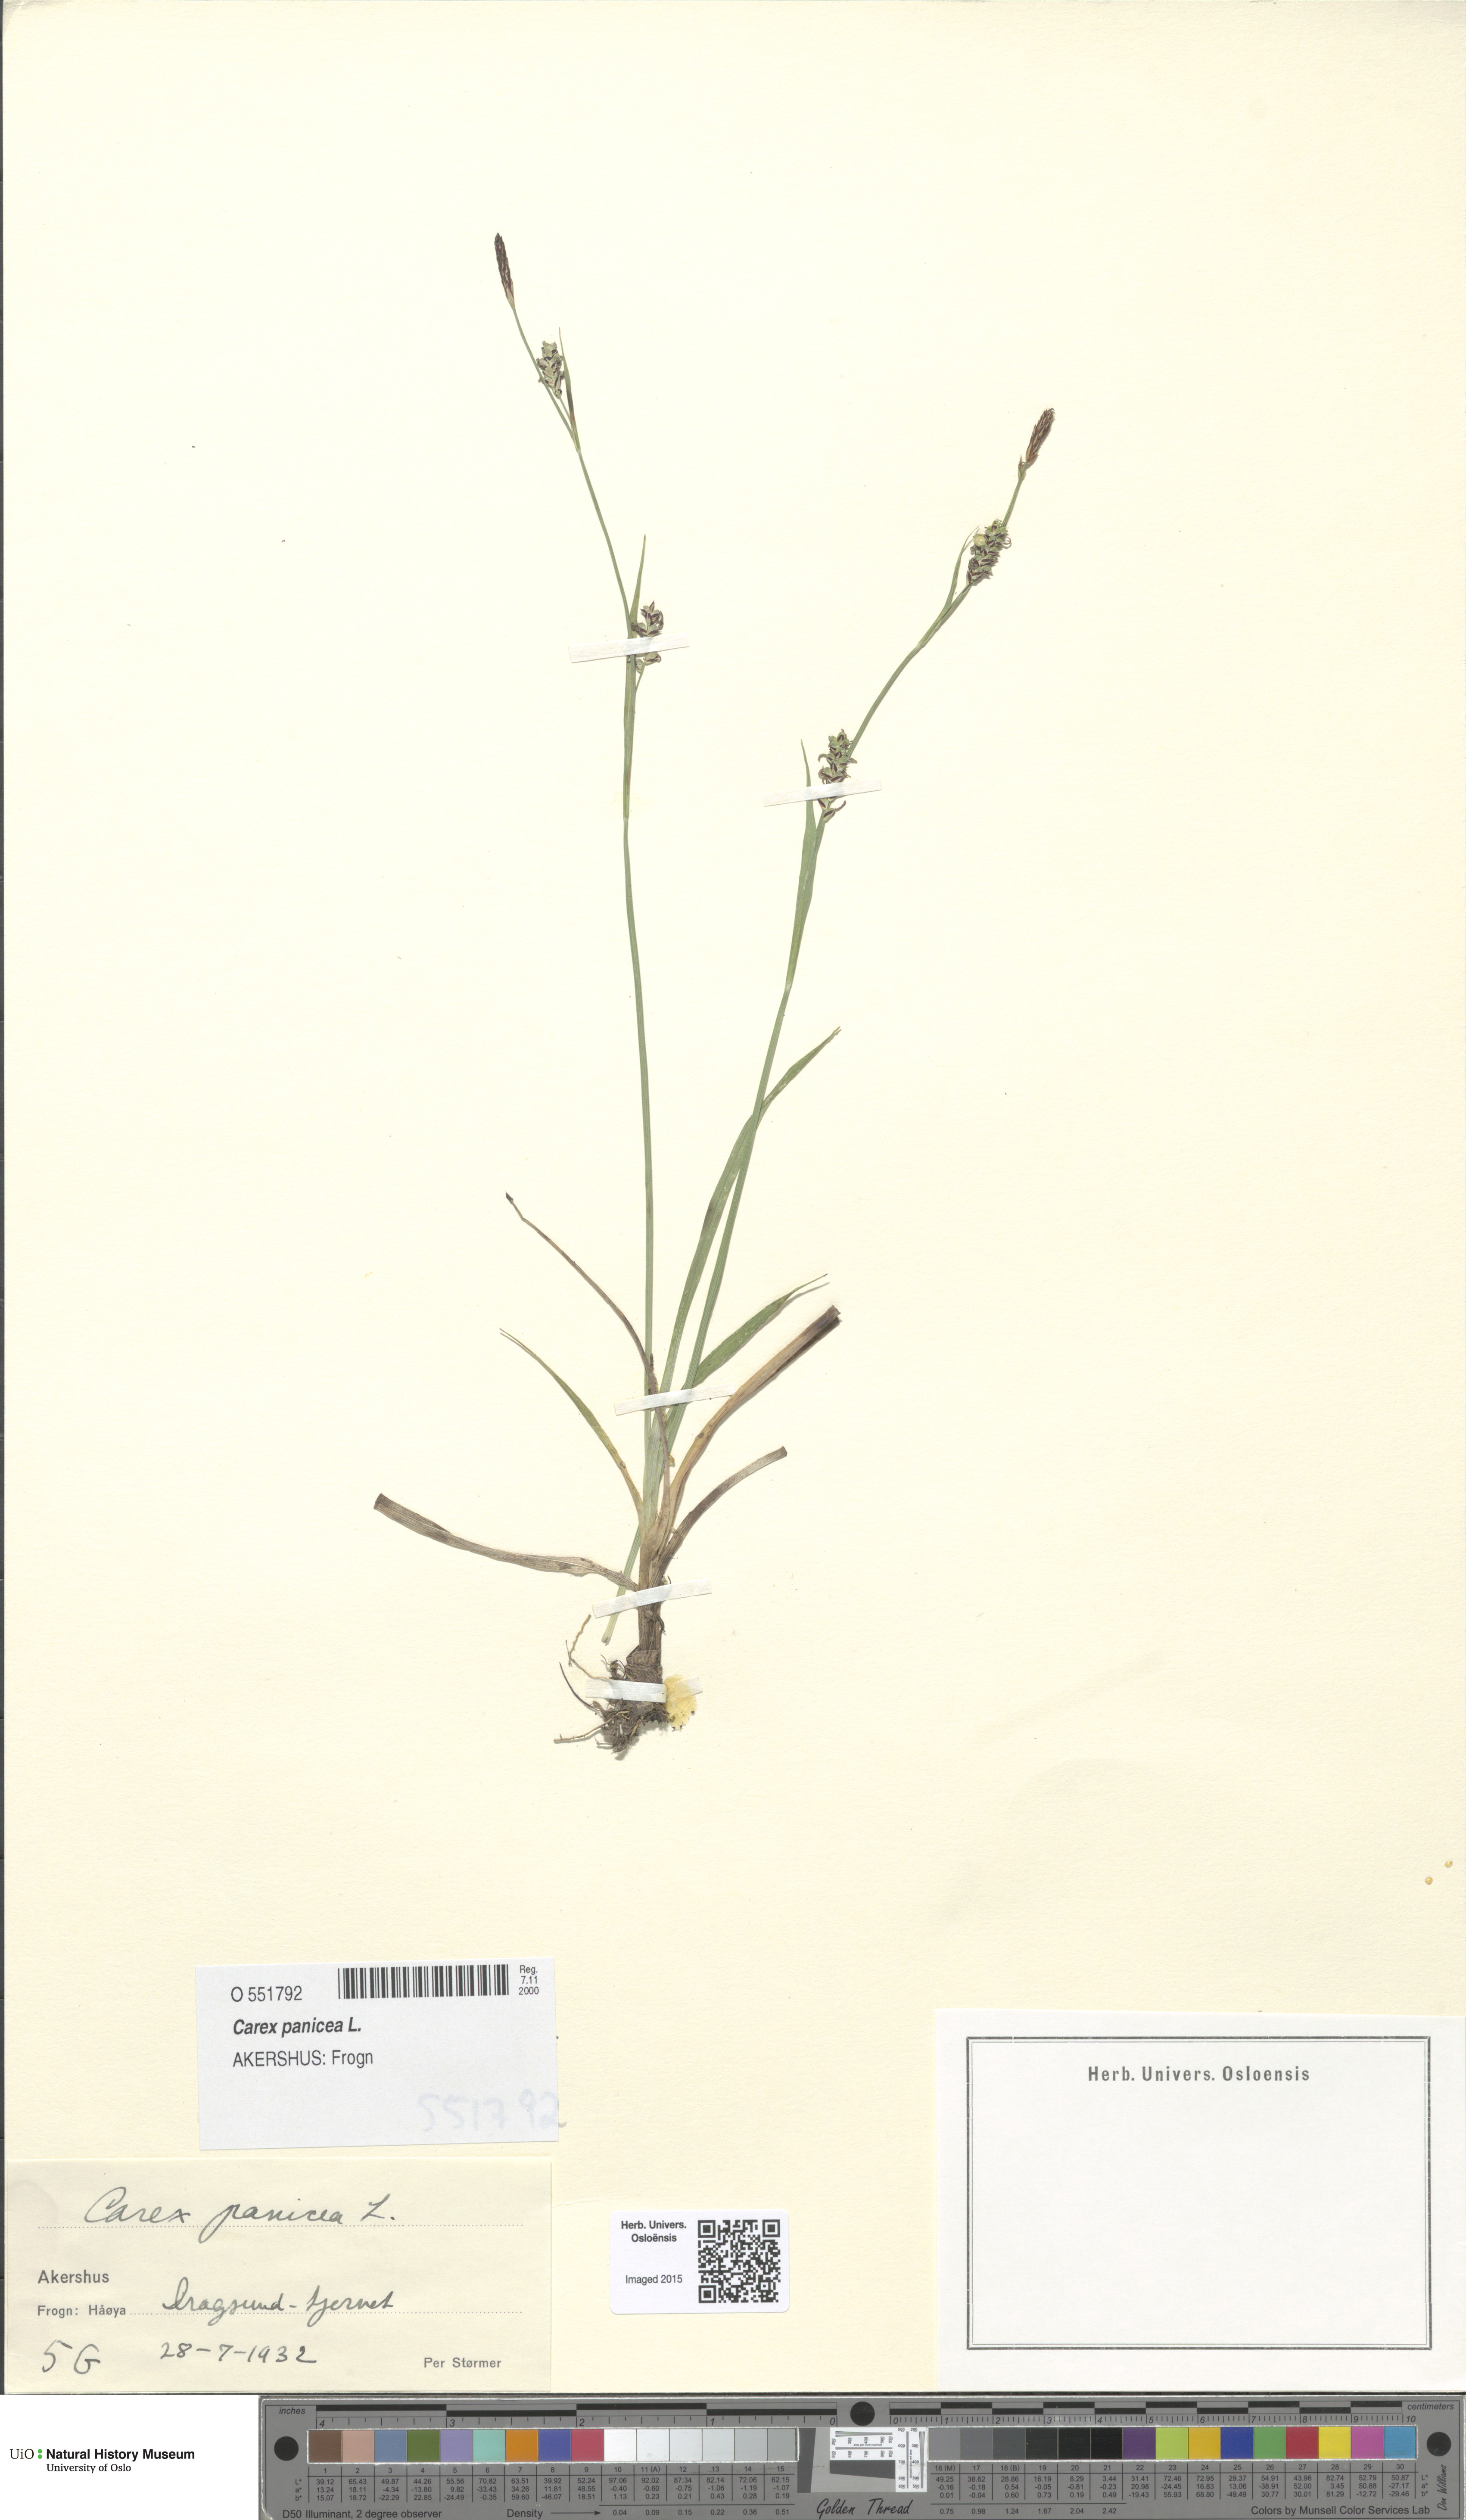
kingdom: Plantae
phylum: Tracheophyta
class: Liliopsida
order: Poales
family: Cyperaceae
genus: Carex
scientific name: Carex panicea
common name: Carnation sedge
